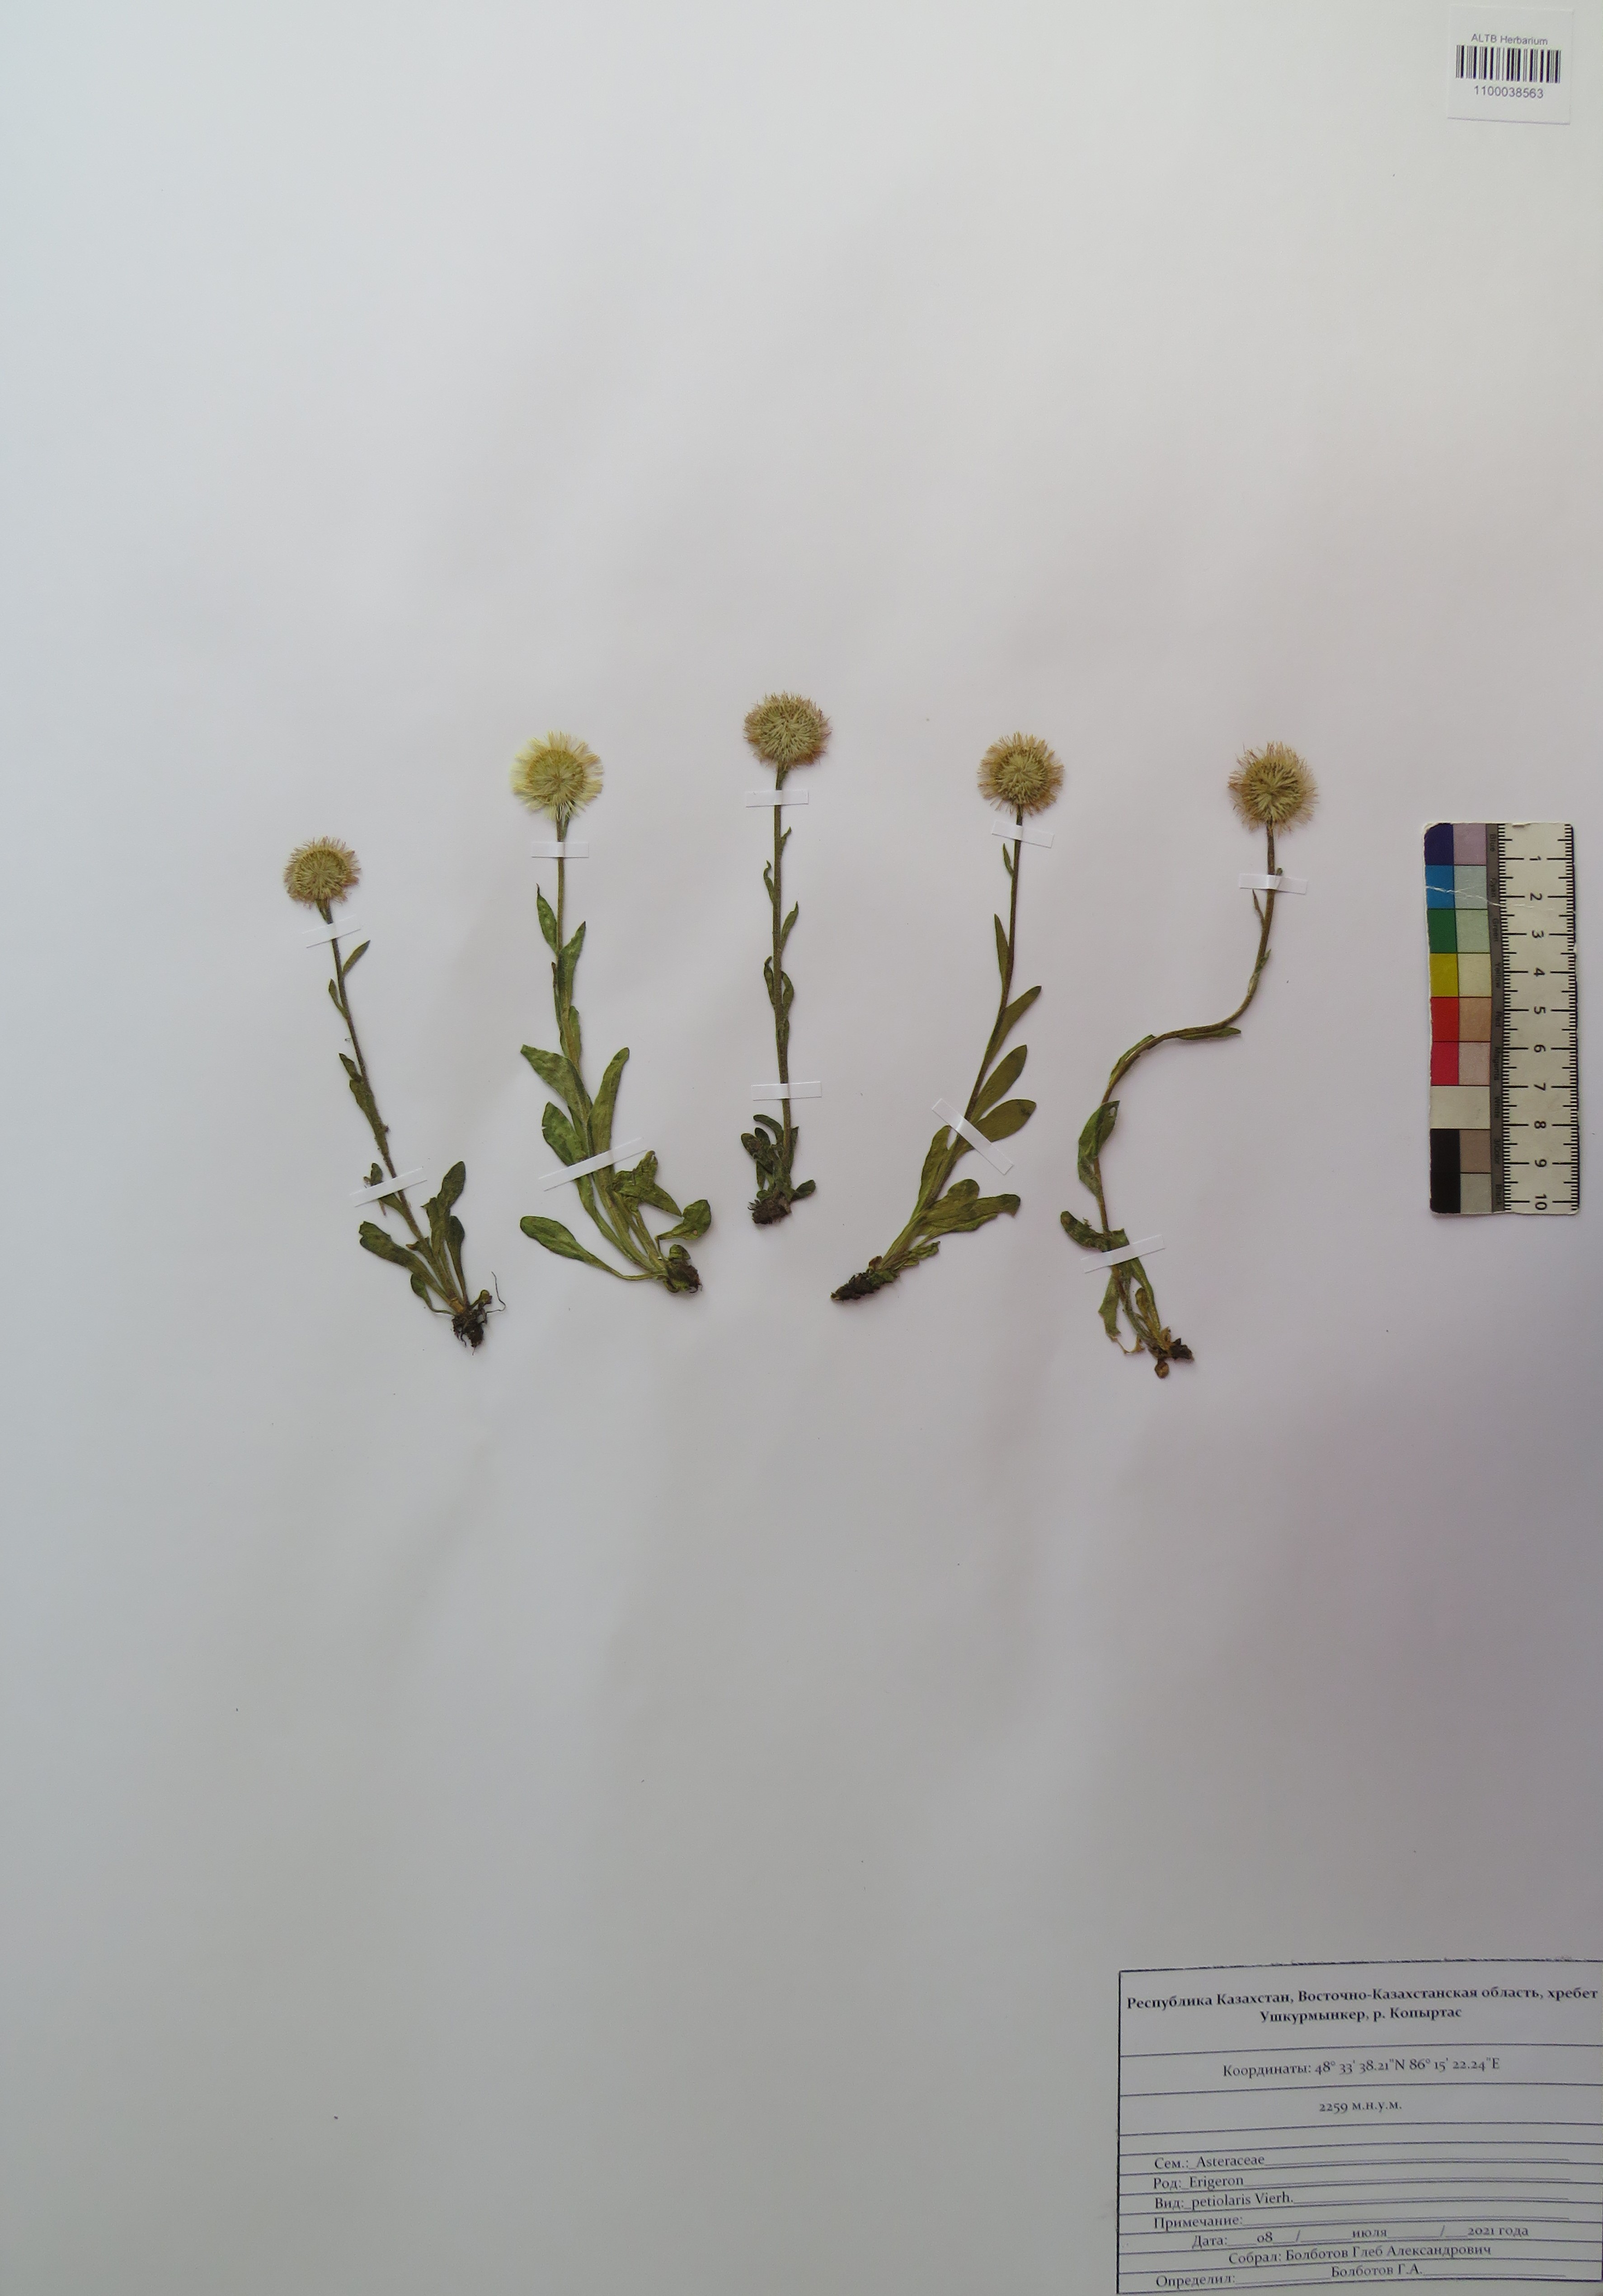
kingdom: Plantae
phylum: Tracheophyta
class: Magnoliopsida
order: Asterales
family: Asteraceae
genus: Erigeron
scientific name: Erigeron petiolaris
